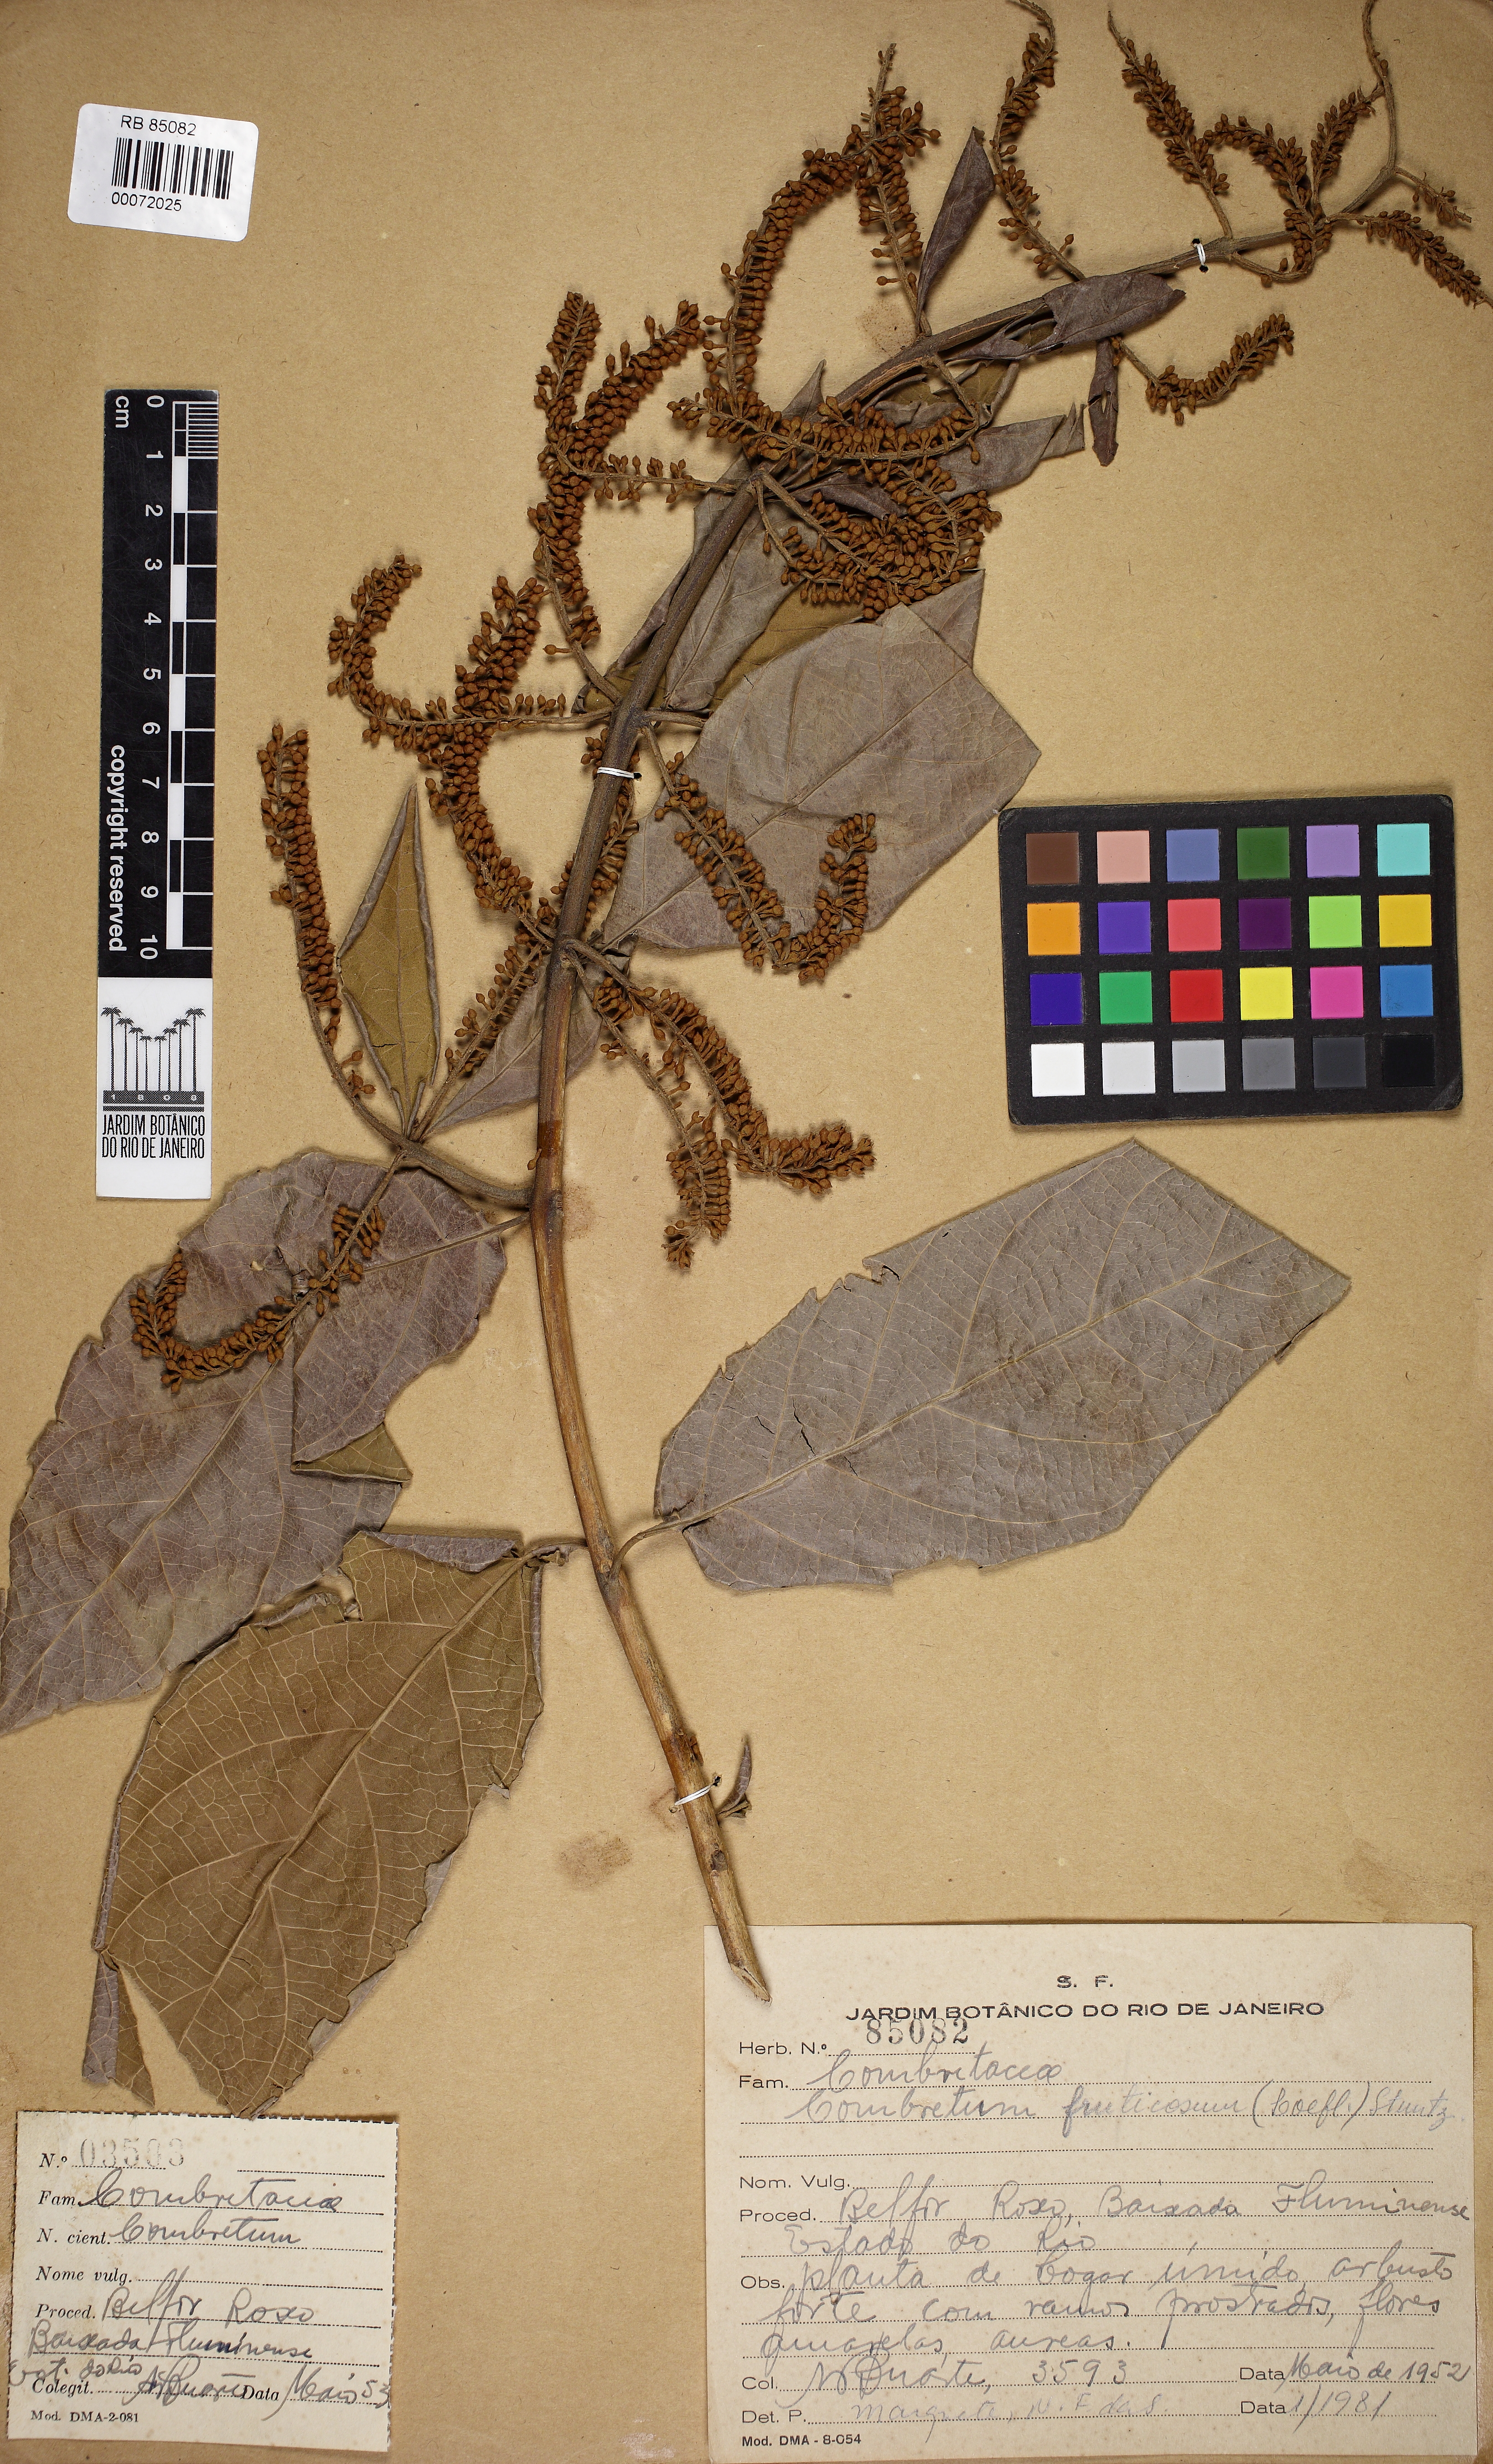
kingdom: Plantae
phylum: Tracheophyta
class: Magnoliopsida
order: Myrtales
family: Combretaceae
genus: Combretum
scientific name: Combretum fruticosum
